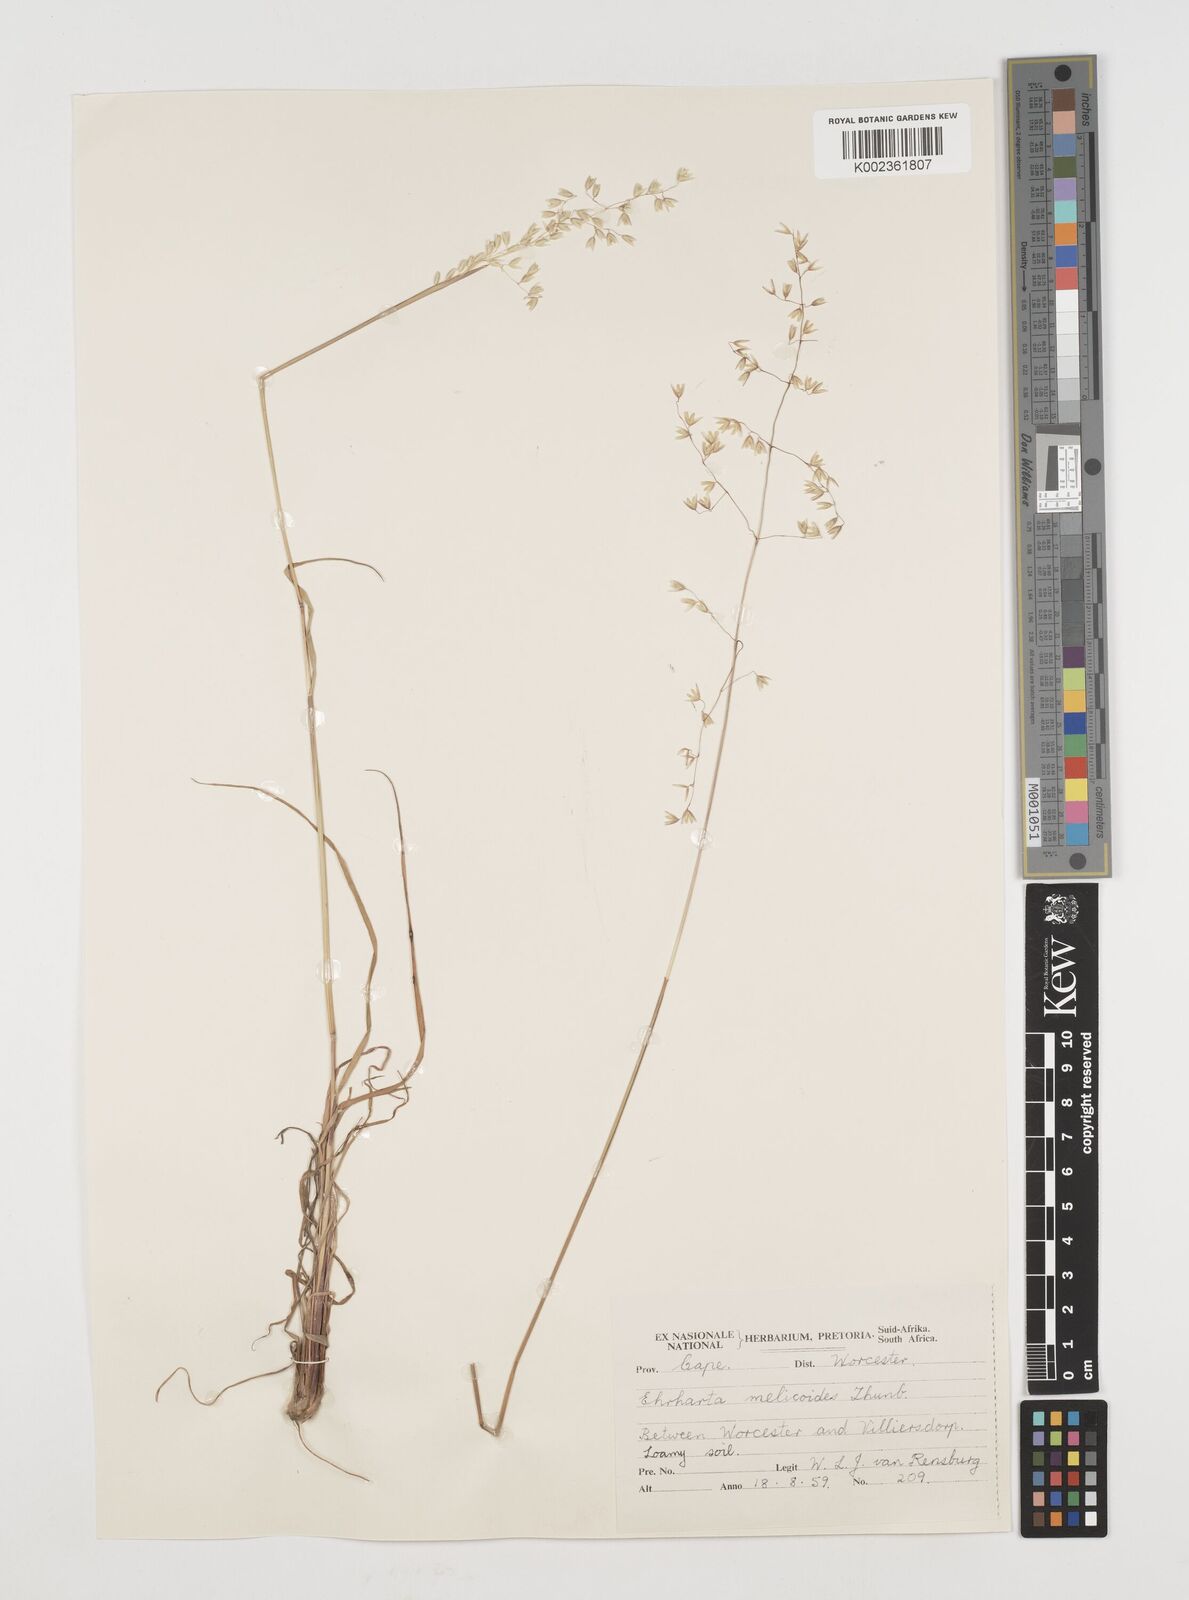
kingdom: Plantae
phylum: Tracheophyta
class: Liliopsida
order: Poales
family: Poaceae
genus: Ehrharta
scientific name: Ehrharta melicoides
